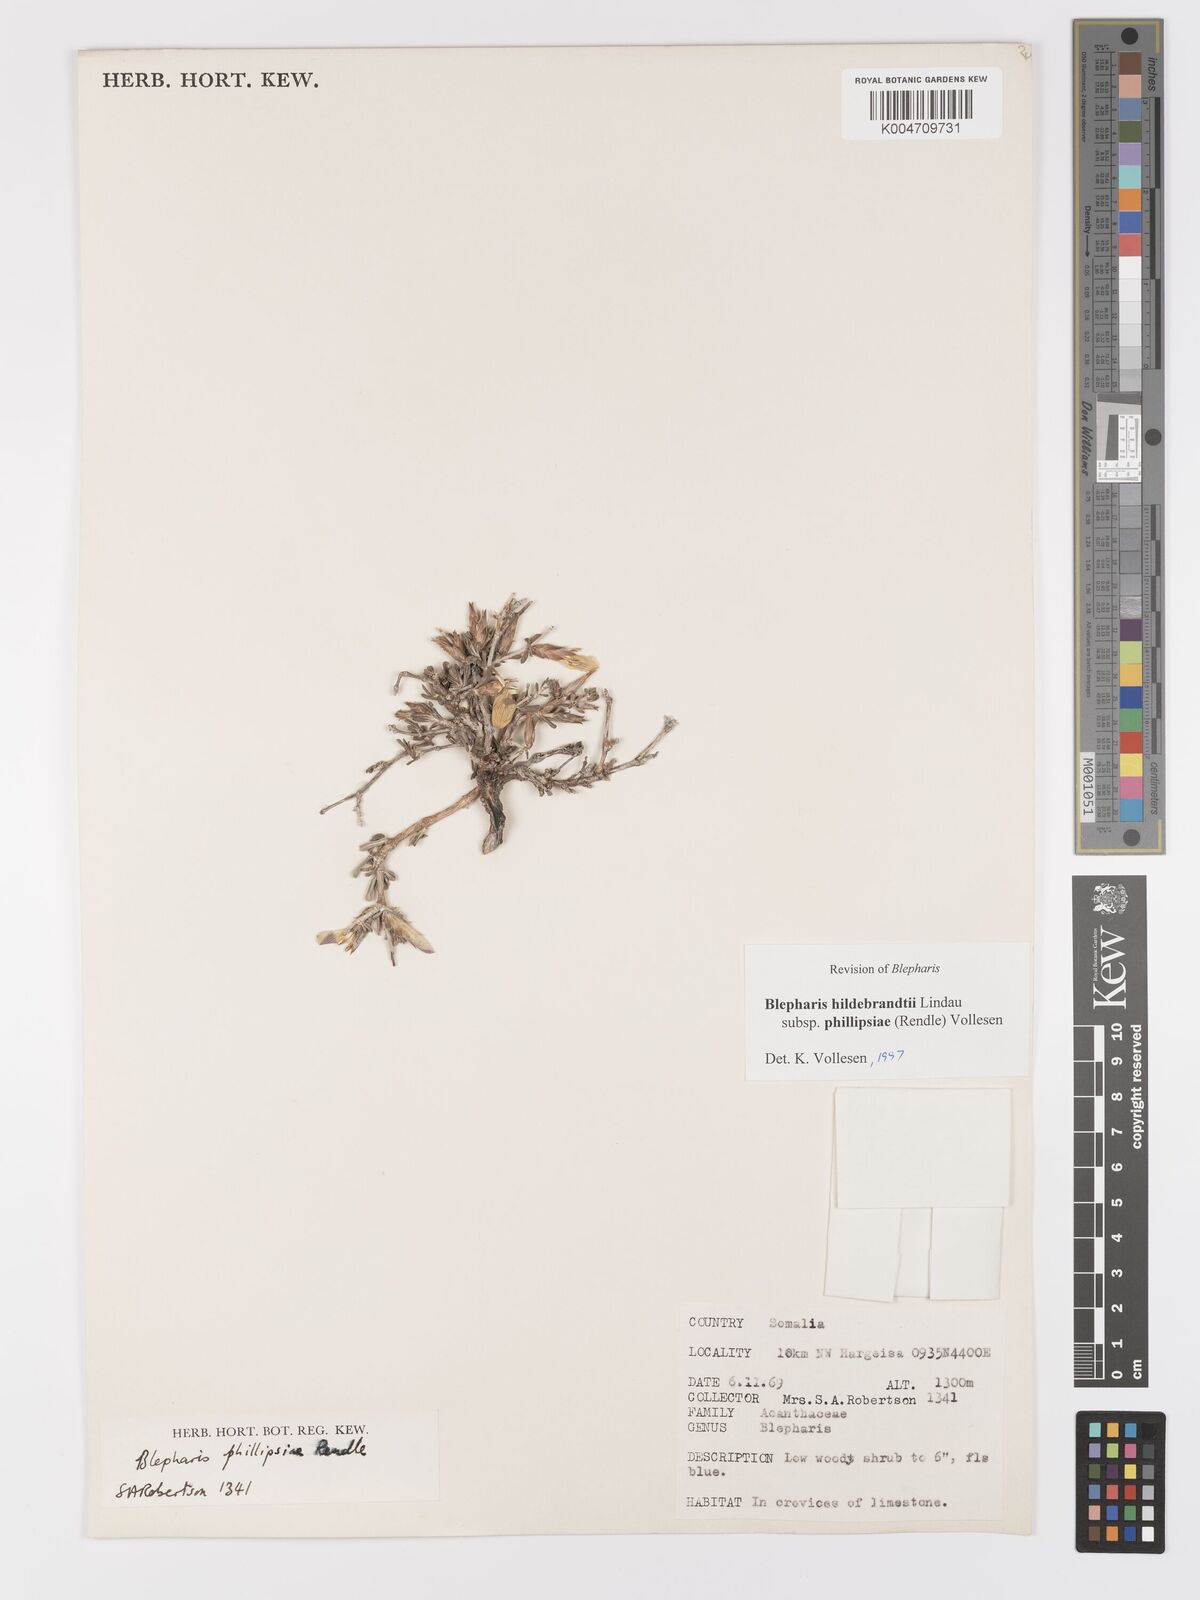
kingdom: Plantae
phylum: Tracheophyta
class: Magnoliopsida
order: Lamiales
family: Acanthaceae
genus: Blepharis
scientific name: Blepharis hildebrandtii
